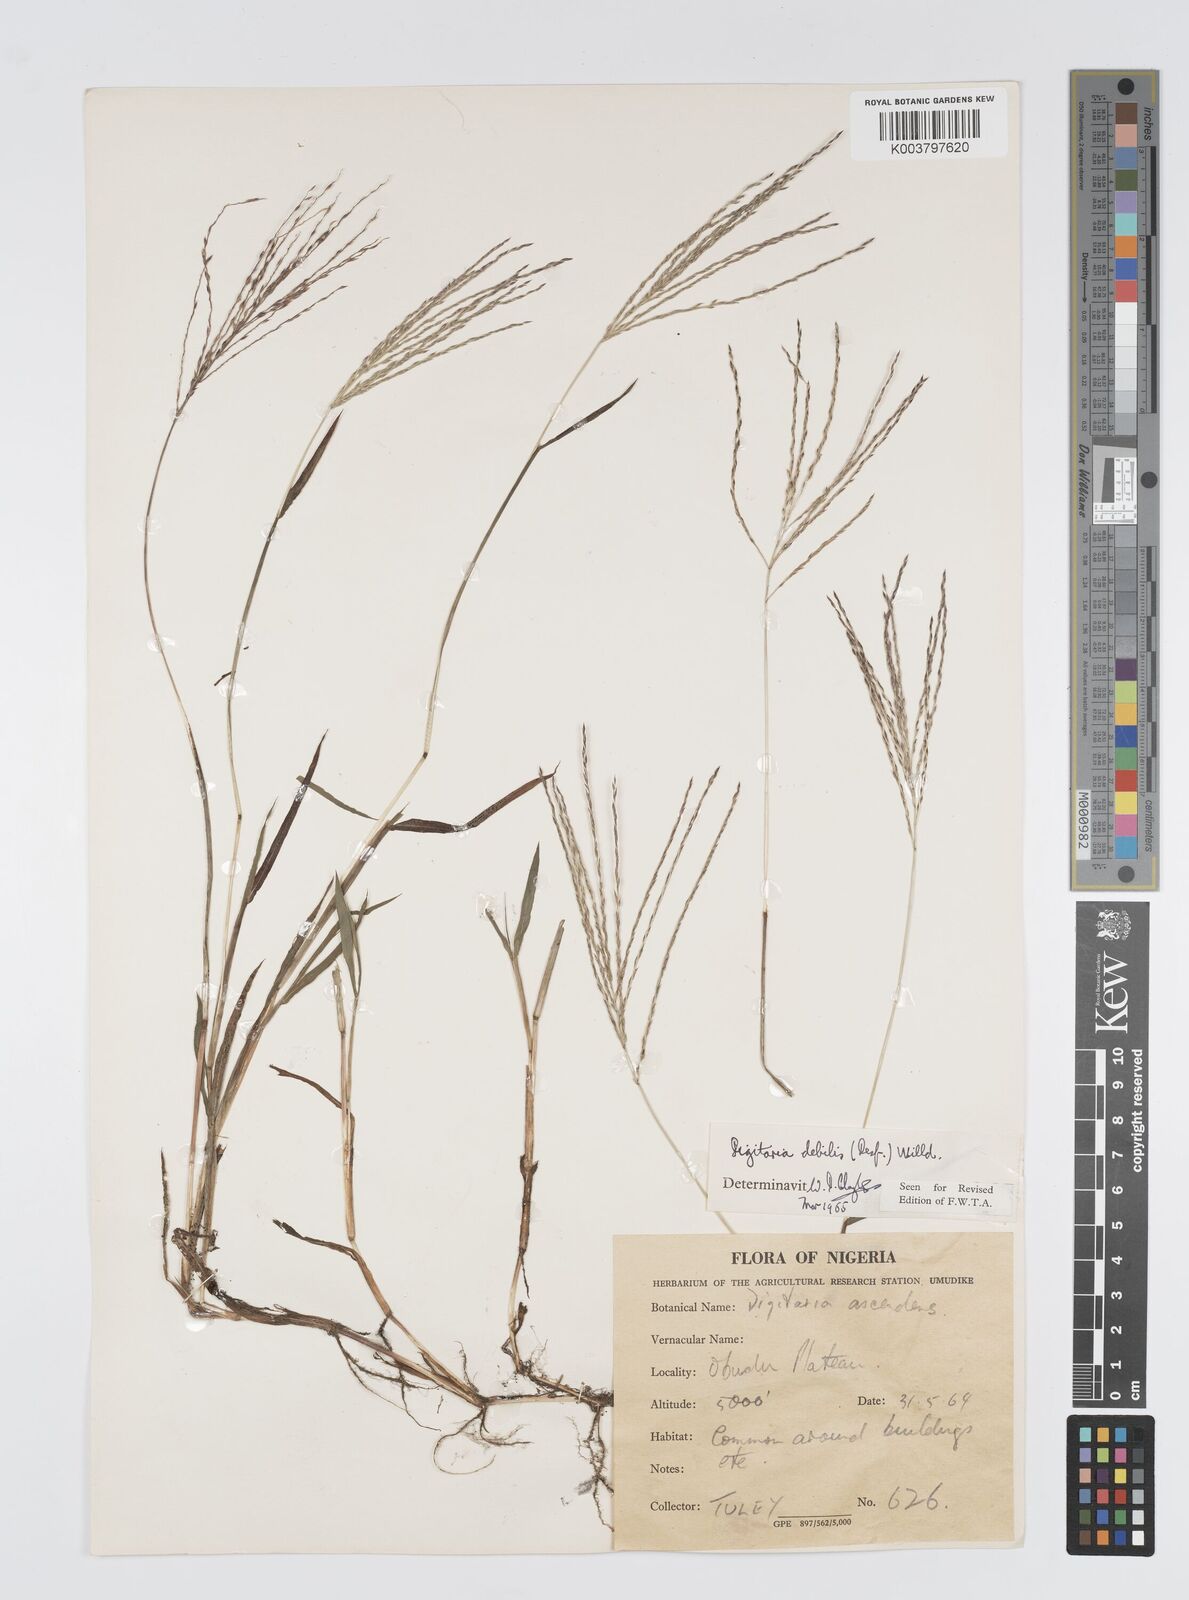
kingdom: Plantae
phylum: Tracheophyta
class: Liliopsida
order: Poales
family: Poaceae
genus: Digitaria
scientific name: Digitaria debilis
